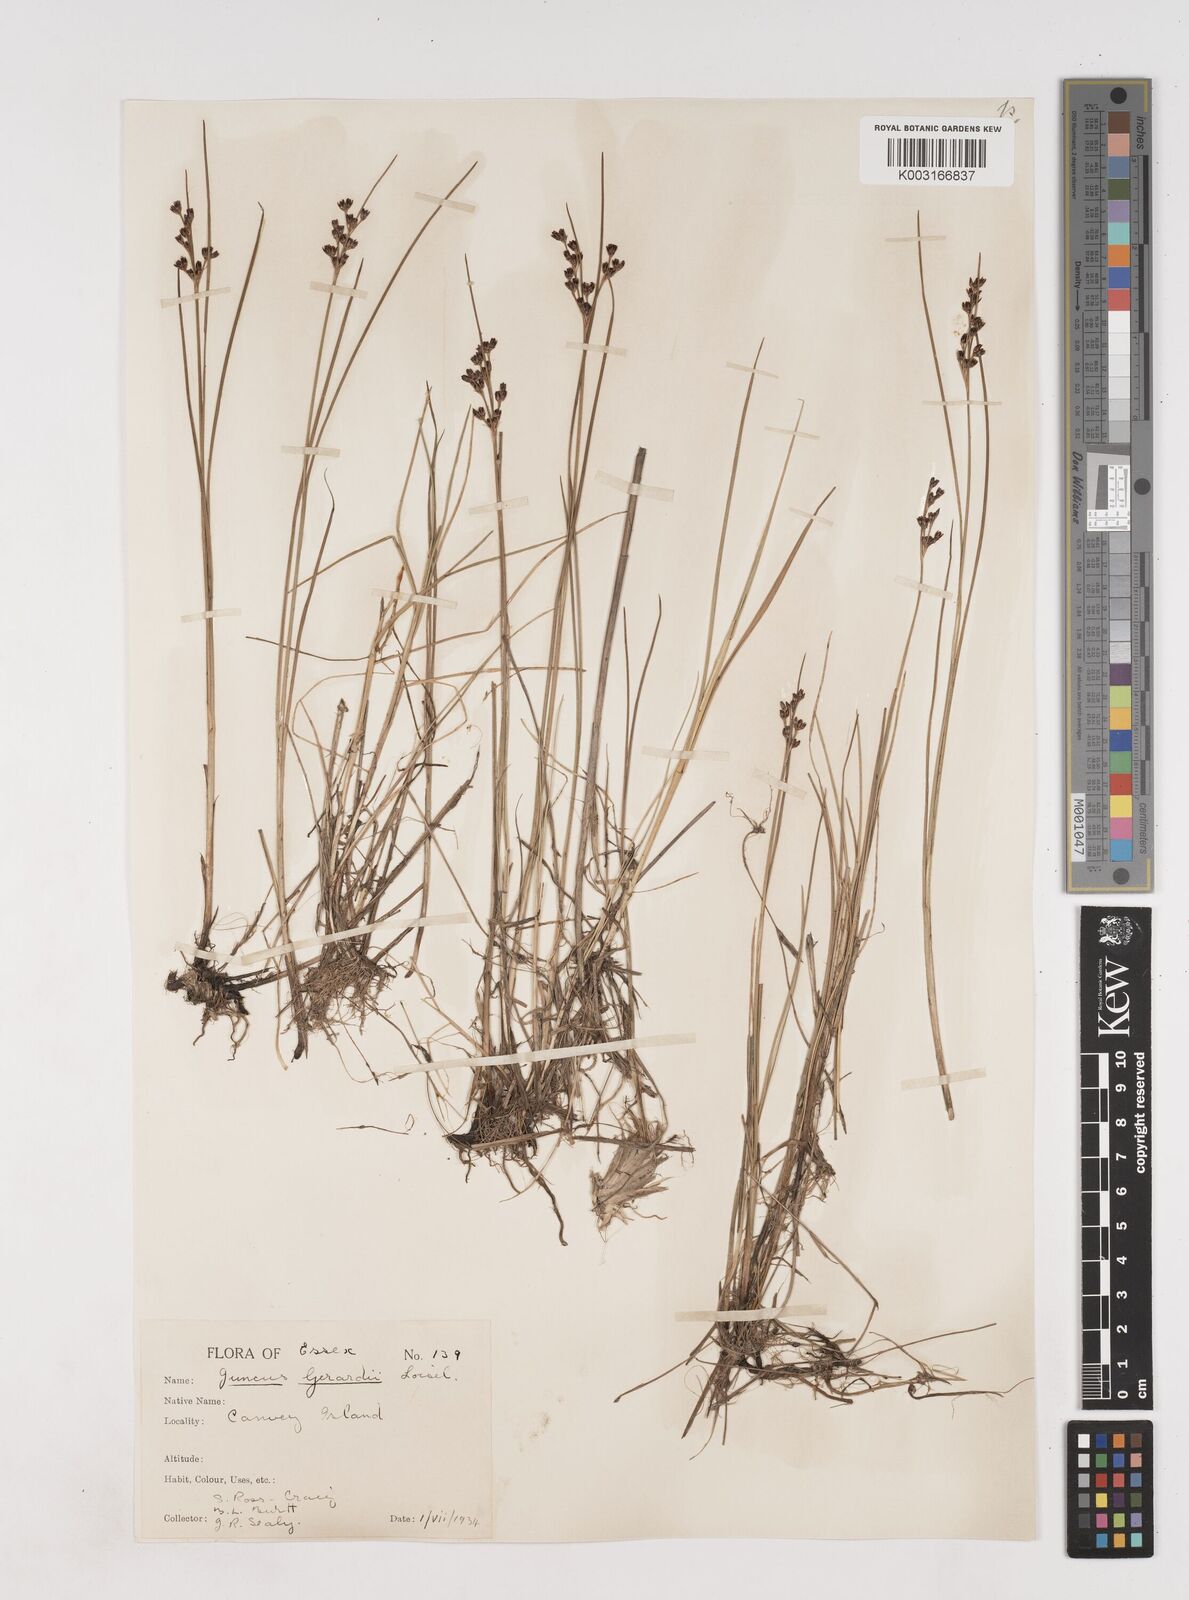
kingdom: Plantae
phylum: Tracheophyta
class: Liliopsida
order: Poales
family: Juncaceae
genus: Juncus
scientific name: Juncus gerardi
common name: Saltmarsh rush
